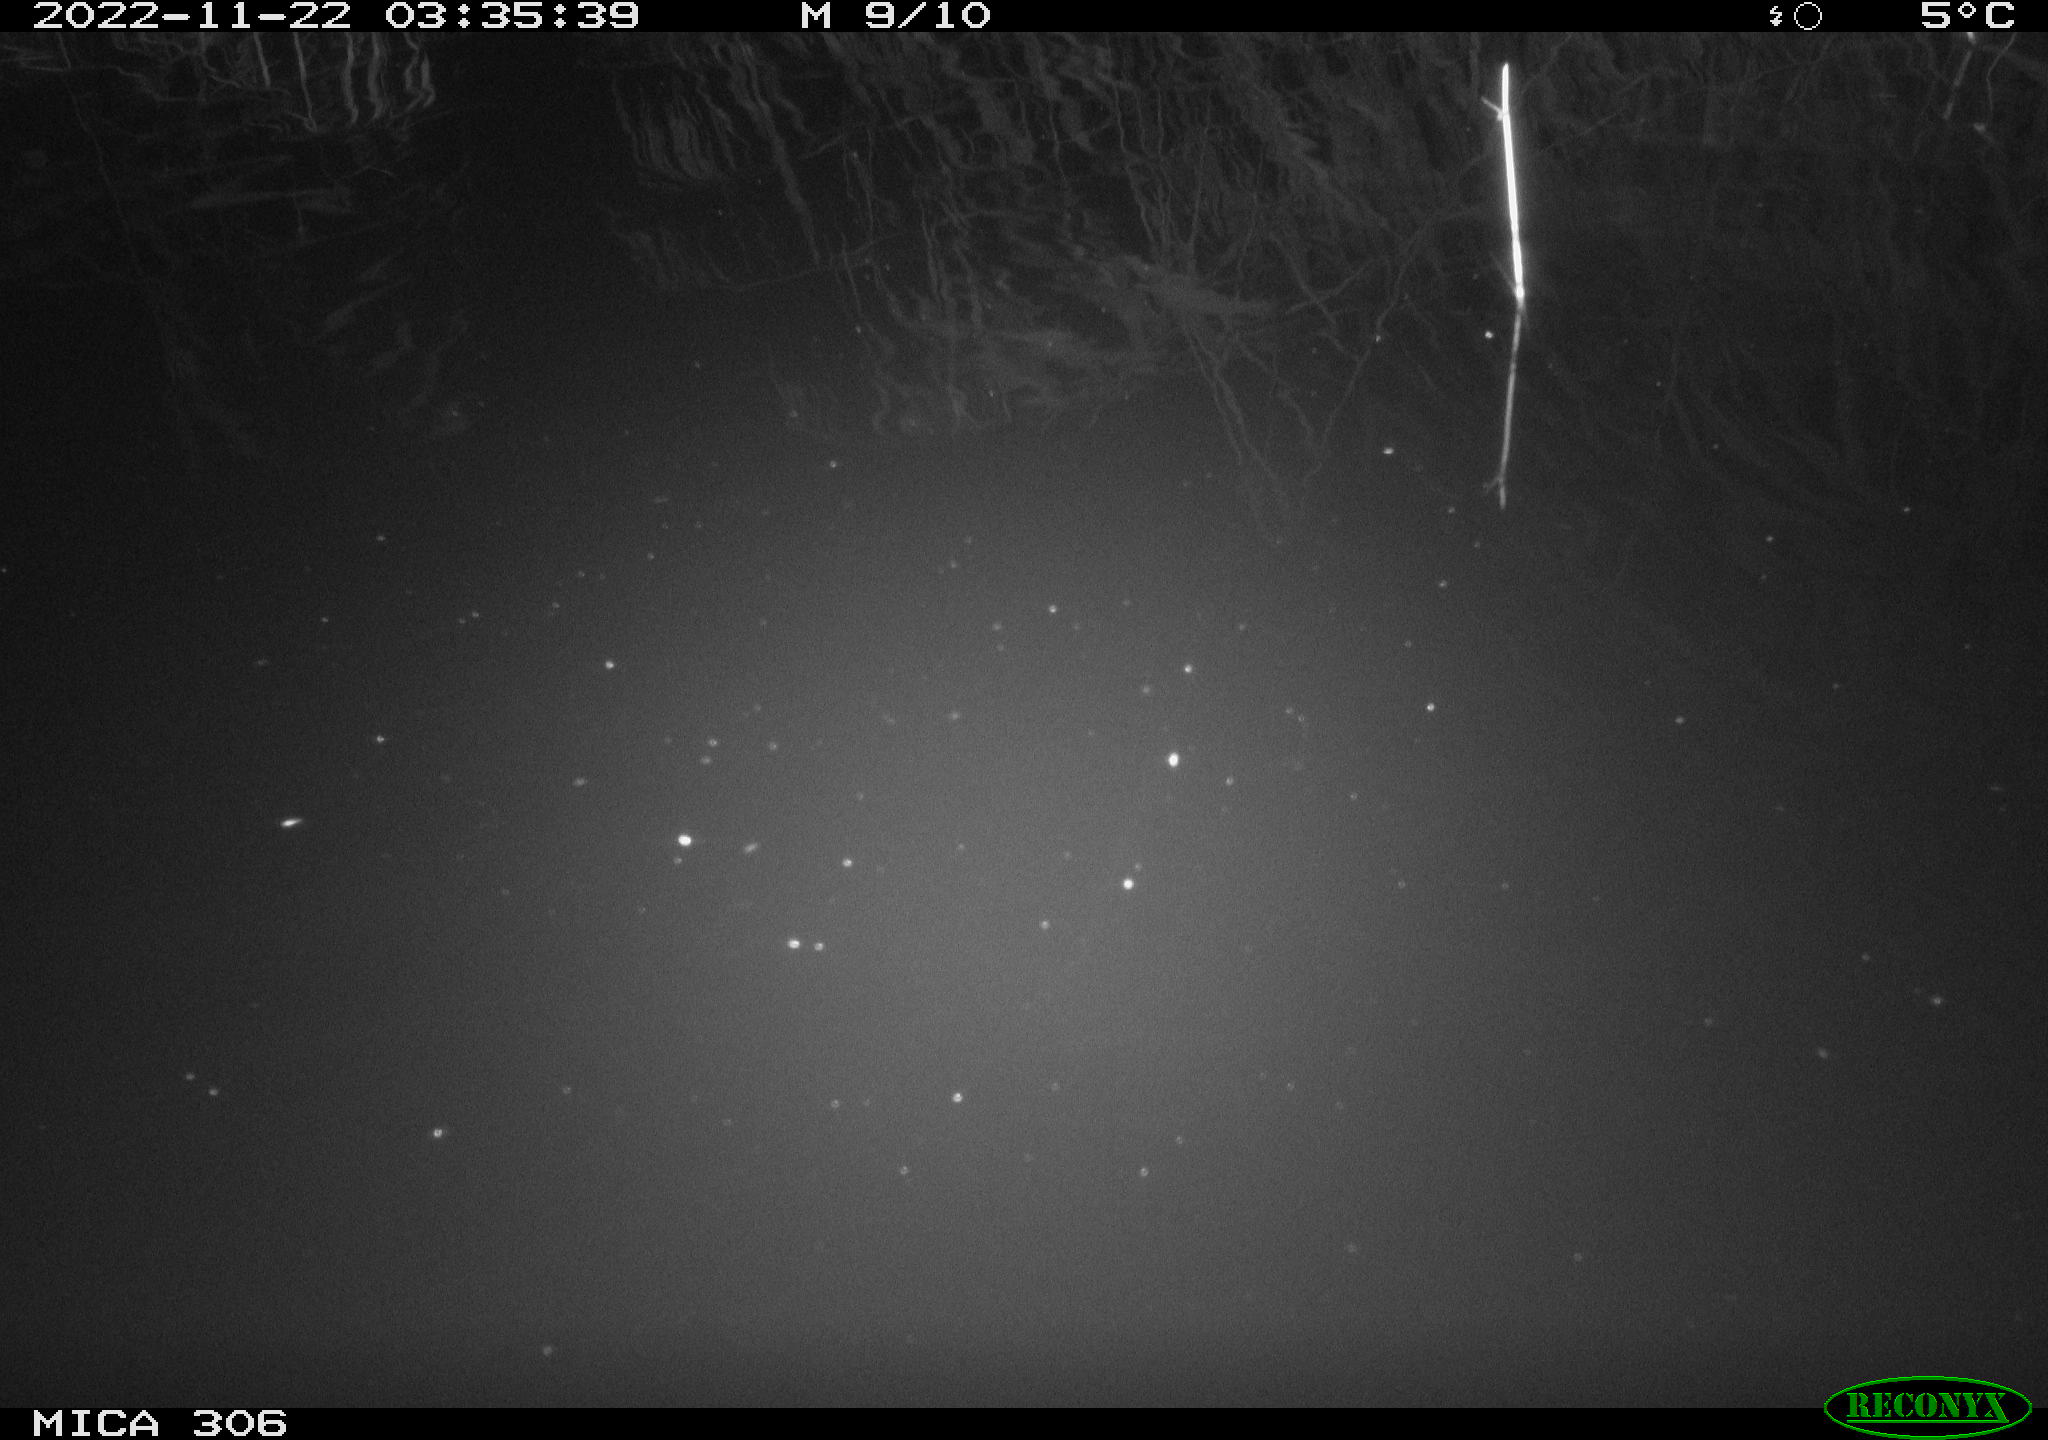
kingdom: Animalia
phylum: Chordata
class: Mammalia
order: Rodentia
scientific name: Rodentia
